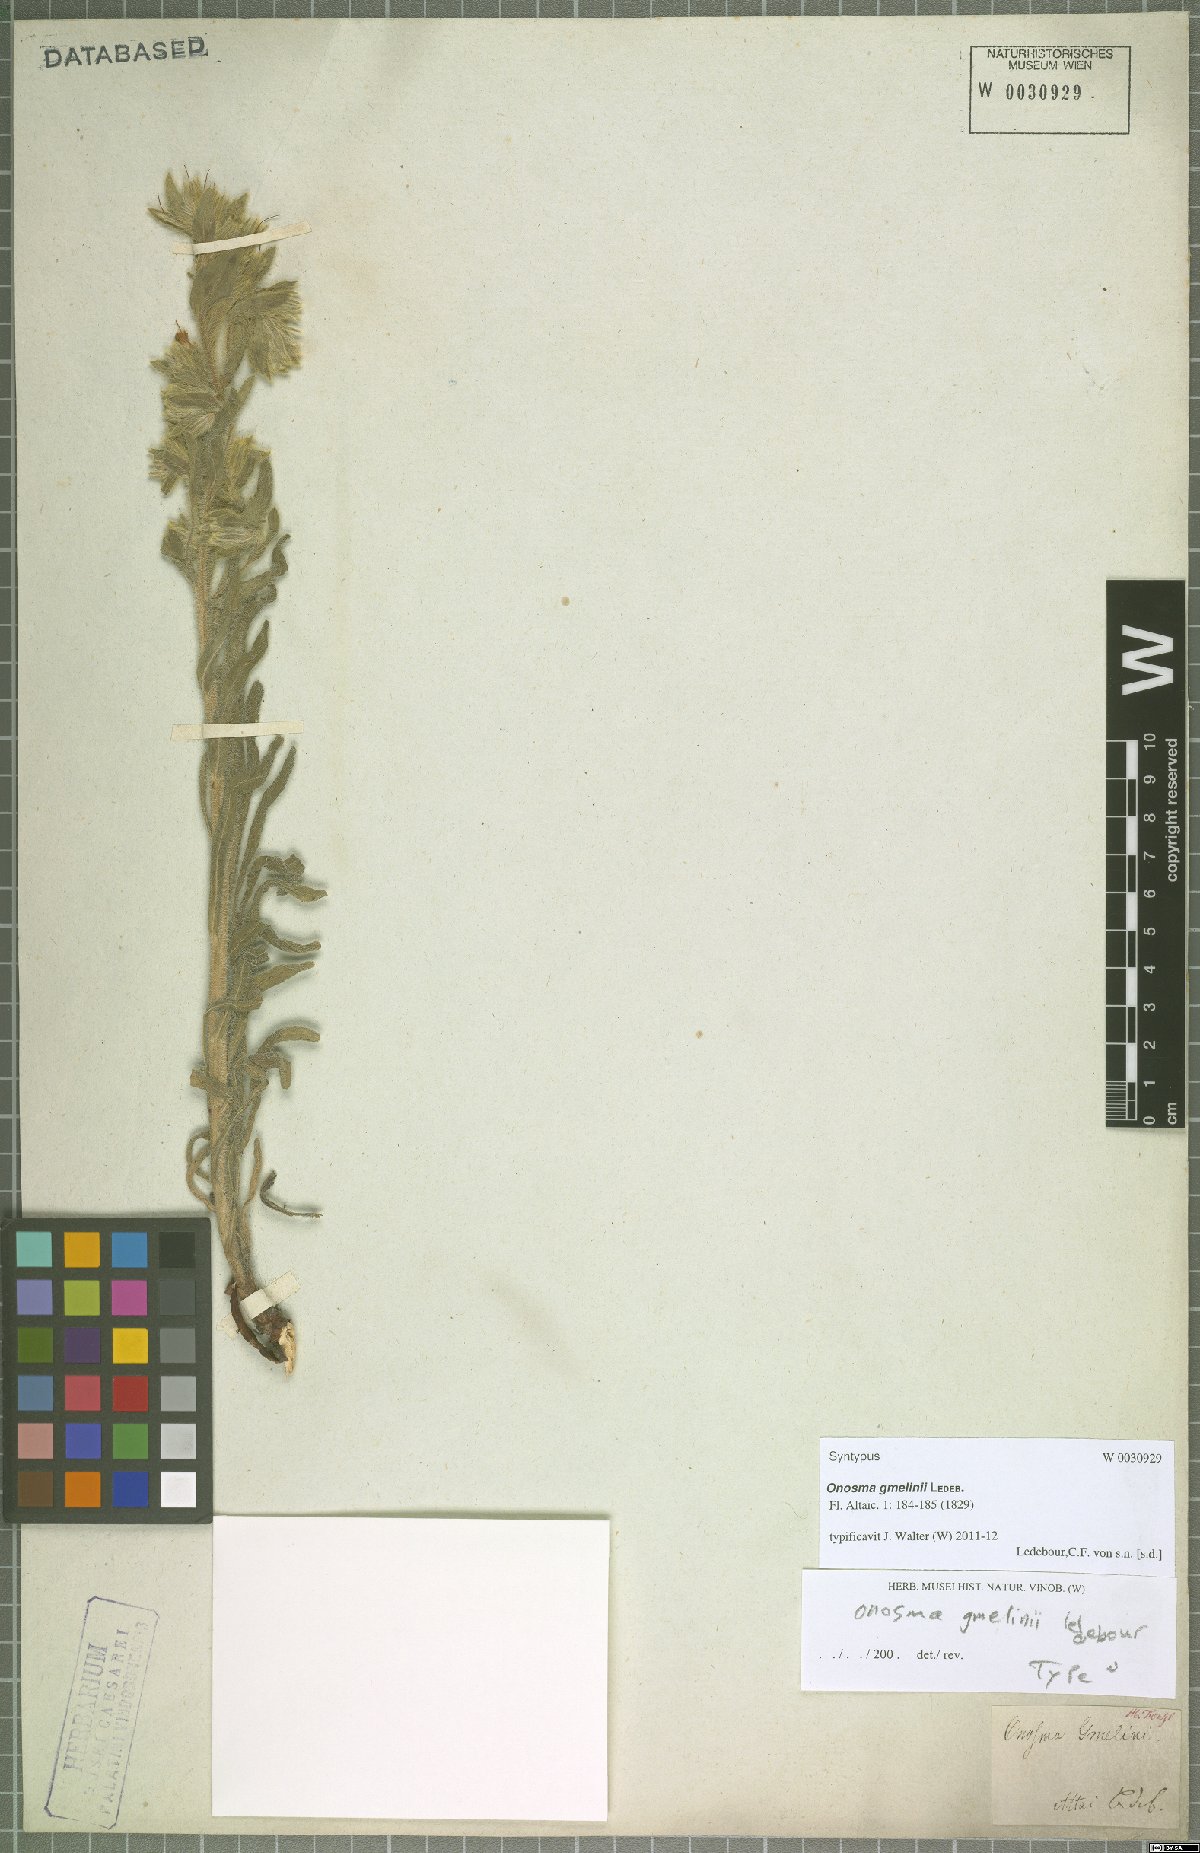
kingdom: Plantae
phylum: Tracheophyta
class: Magnoliopsida
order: Boraginales
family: Boraginaceae
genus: Onosma
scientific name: Onosma gmelinii
